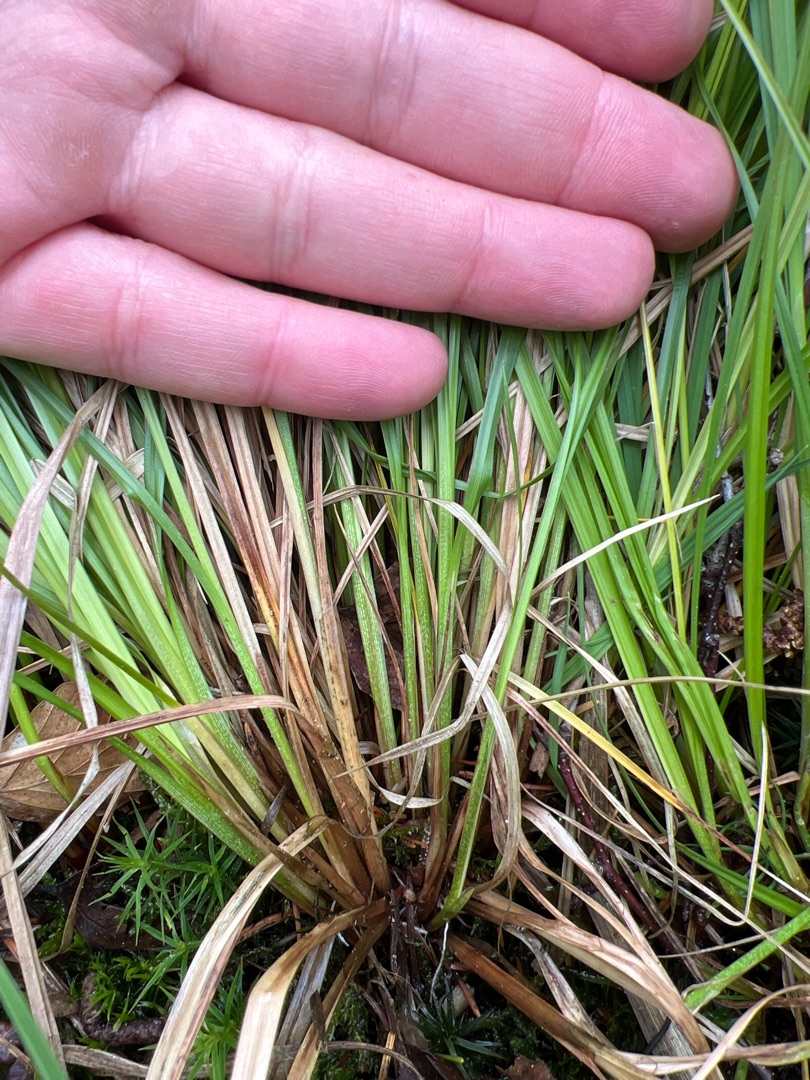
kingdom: Plantae
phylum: Tracheophyta
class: Liliopsida
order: Poales
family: Cyperaceae
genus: Carex
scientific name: Carex elongata
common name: Forlænget star
